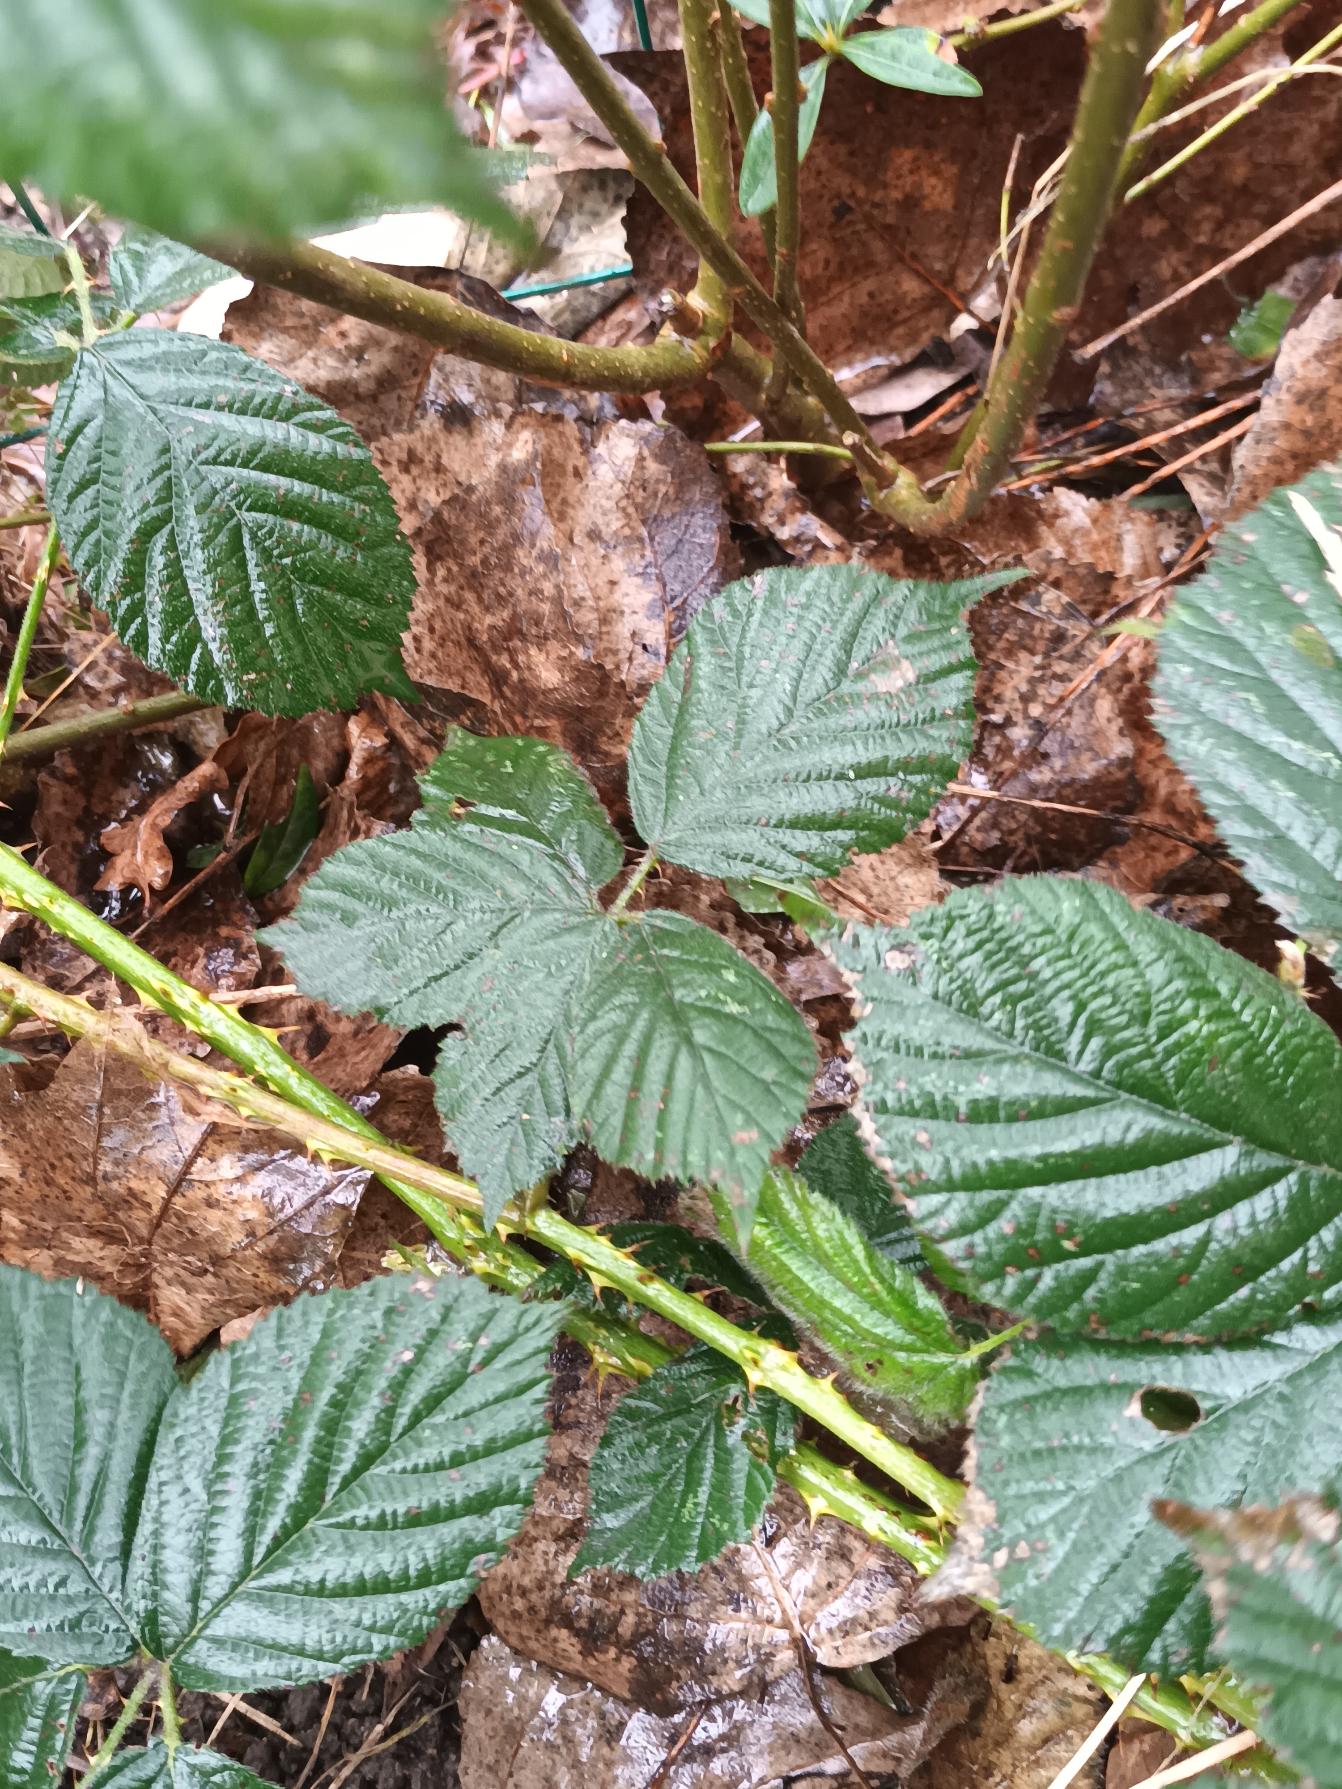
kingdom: Plantae
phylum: Tracheophyta
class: Magnoliopsida
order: Rosales
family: Rosaceae
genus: Rubus
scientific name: Rubus placidus
